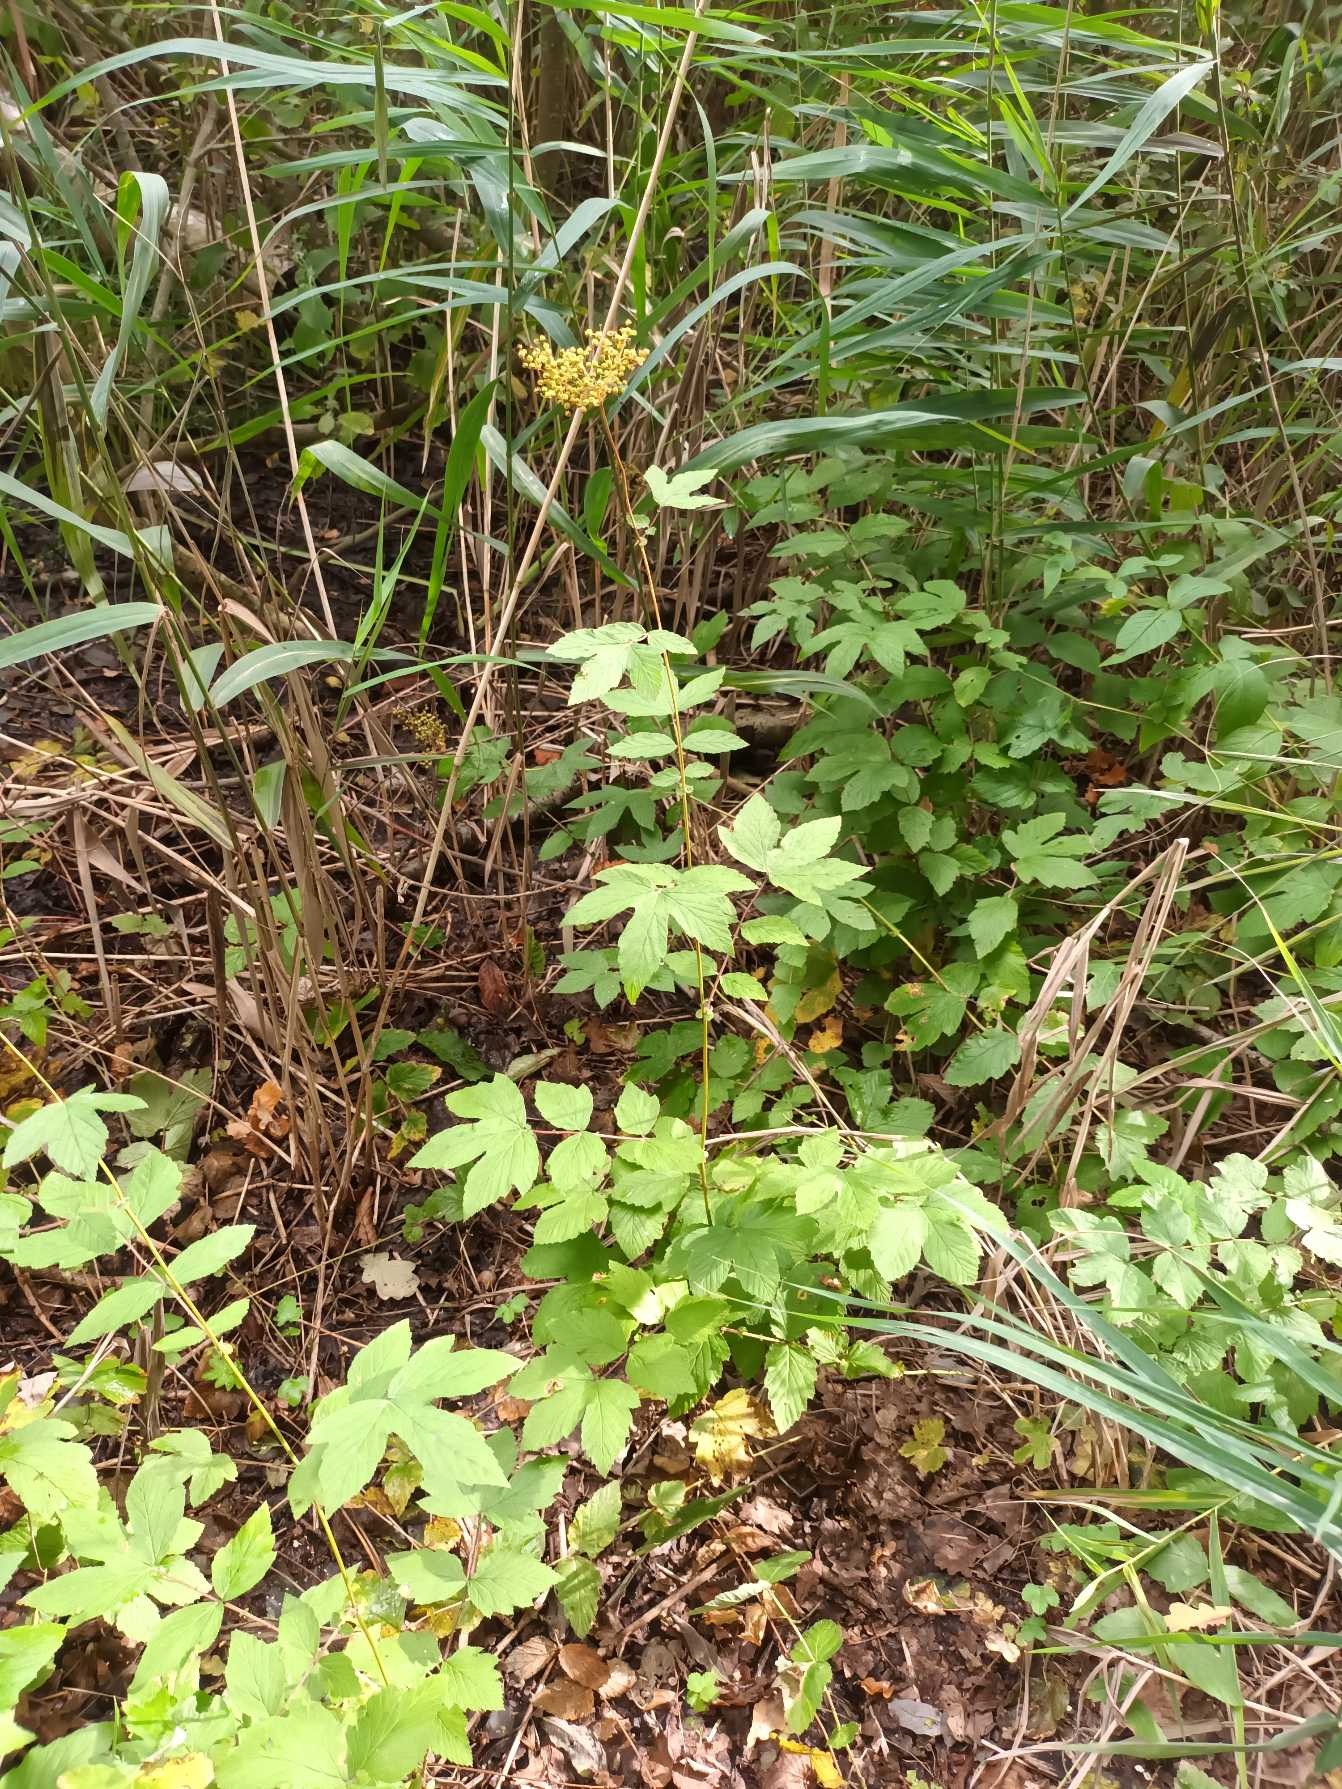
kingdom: Plantae
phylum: Tracheophyta
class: Magnoliopsida
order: Rosales
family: Rosaceae
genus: Filipendula
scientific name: Filipendula ulmaria
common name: Almindelig mjødurt
